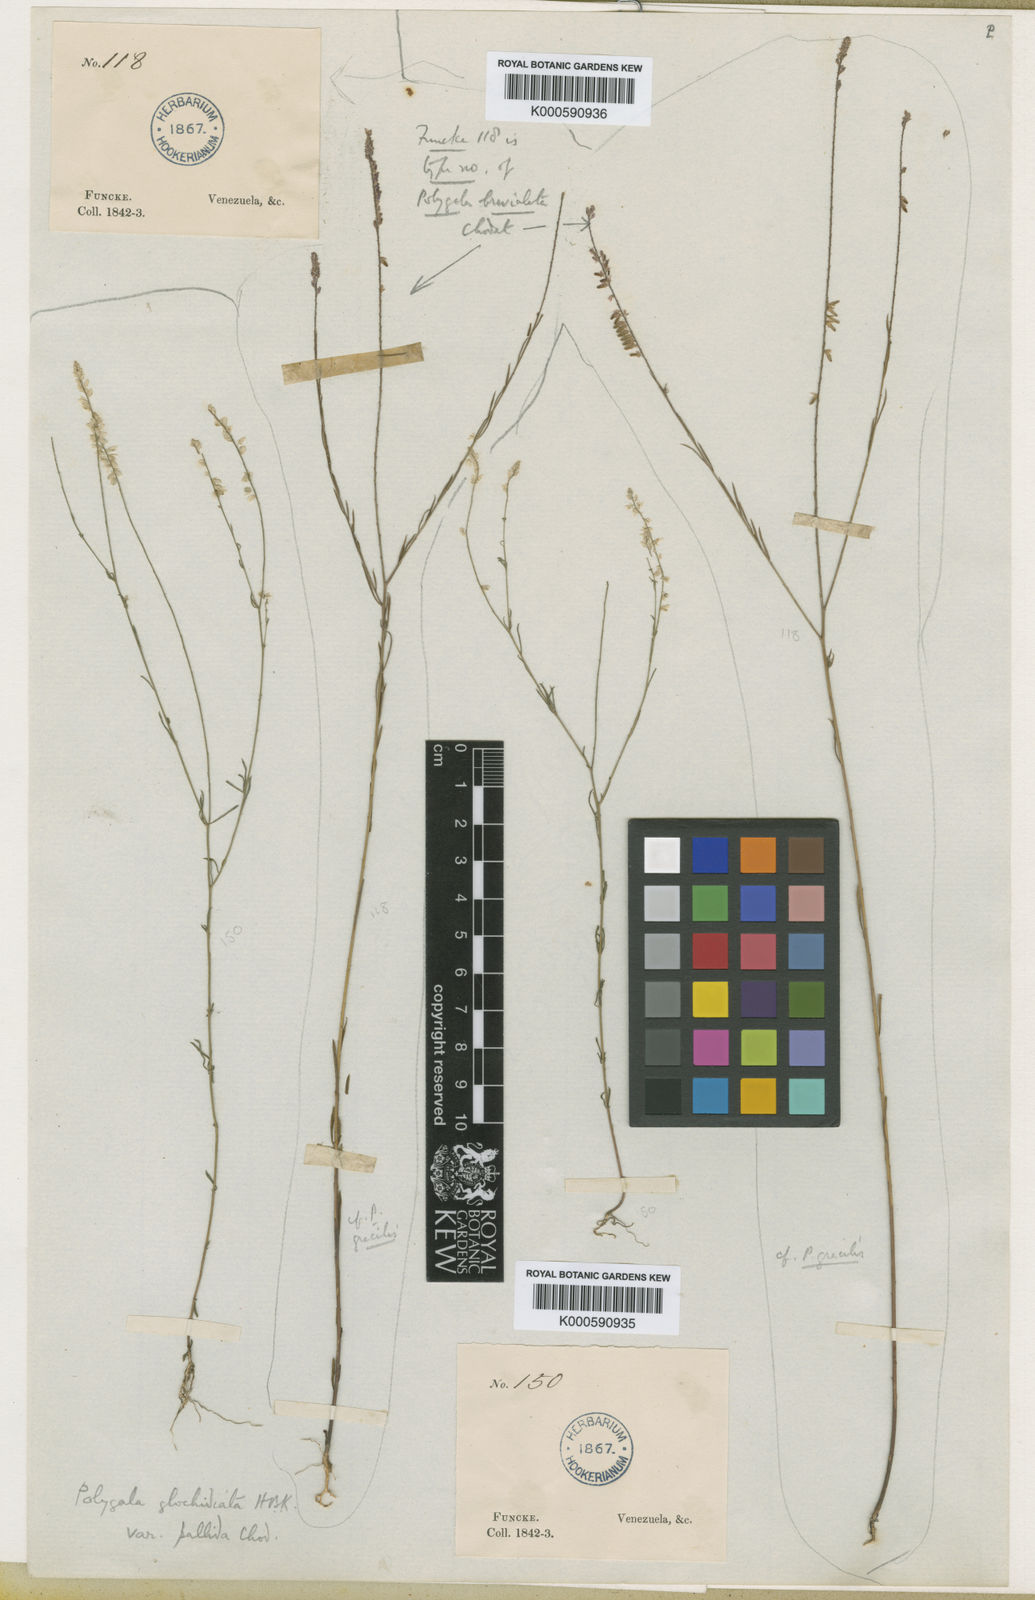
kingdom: Plantae
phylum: Tracheophyta
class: Magnoliopsida
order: Fabales
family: Polygalaceae
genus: Polygala
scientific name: Polygala brevialata
